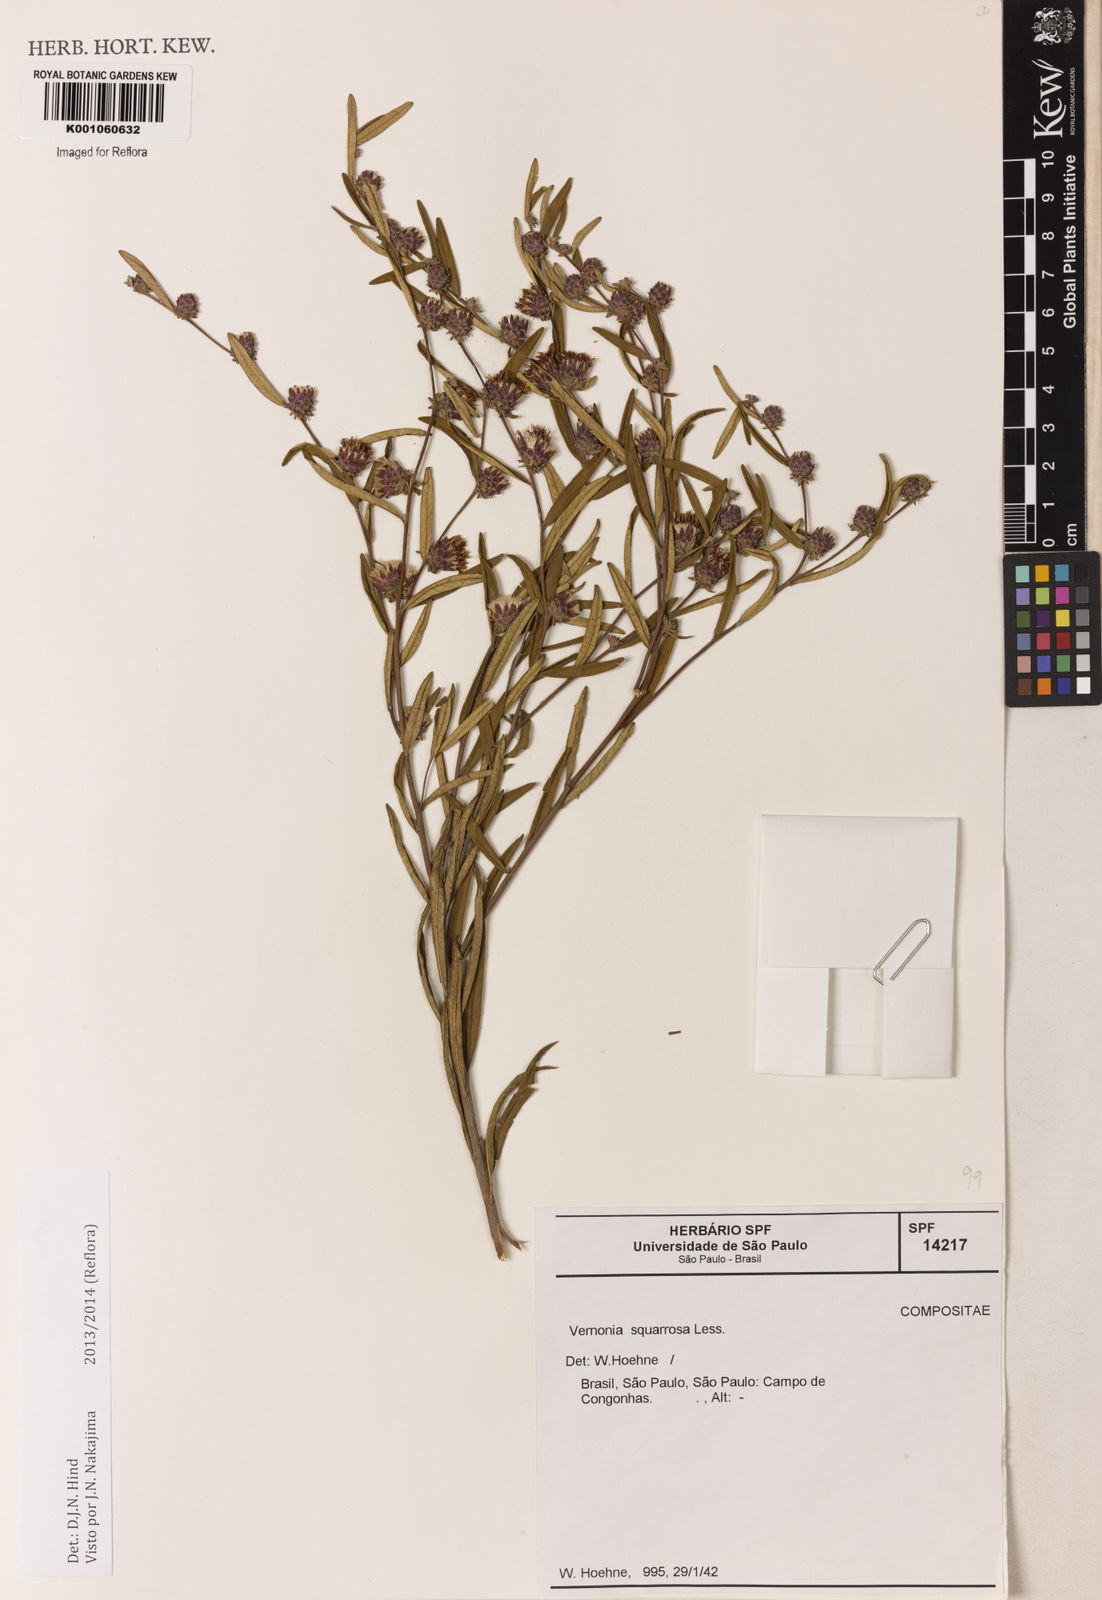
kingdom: Plantae
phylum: Tracheophyta
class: Magnoliopsida
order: Asterales
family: Asteraceae
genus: Lessingianthus
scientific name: Lessingianthus plantaginoides
